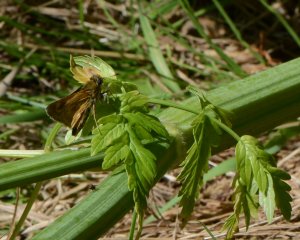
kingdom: Animalia
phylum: Arthropoda
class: Insecta
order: Lepidoptera
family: Hesperiidae
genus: Polites
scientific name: Polites
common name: Long Dash Skipper
